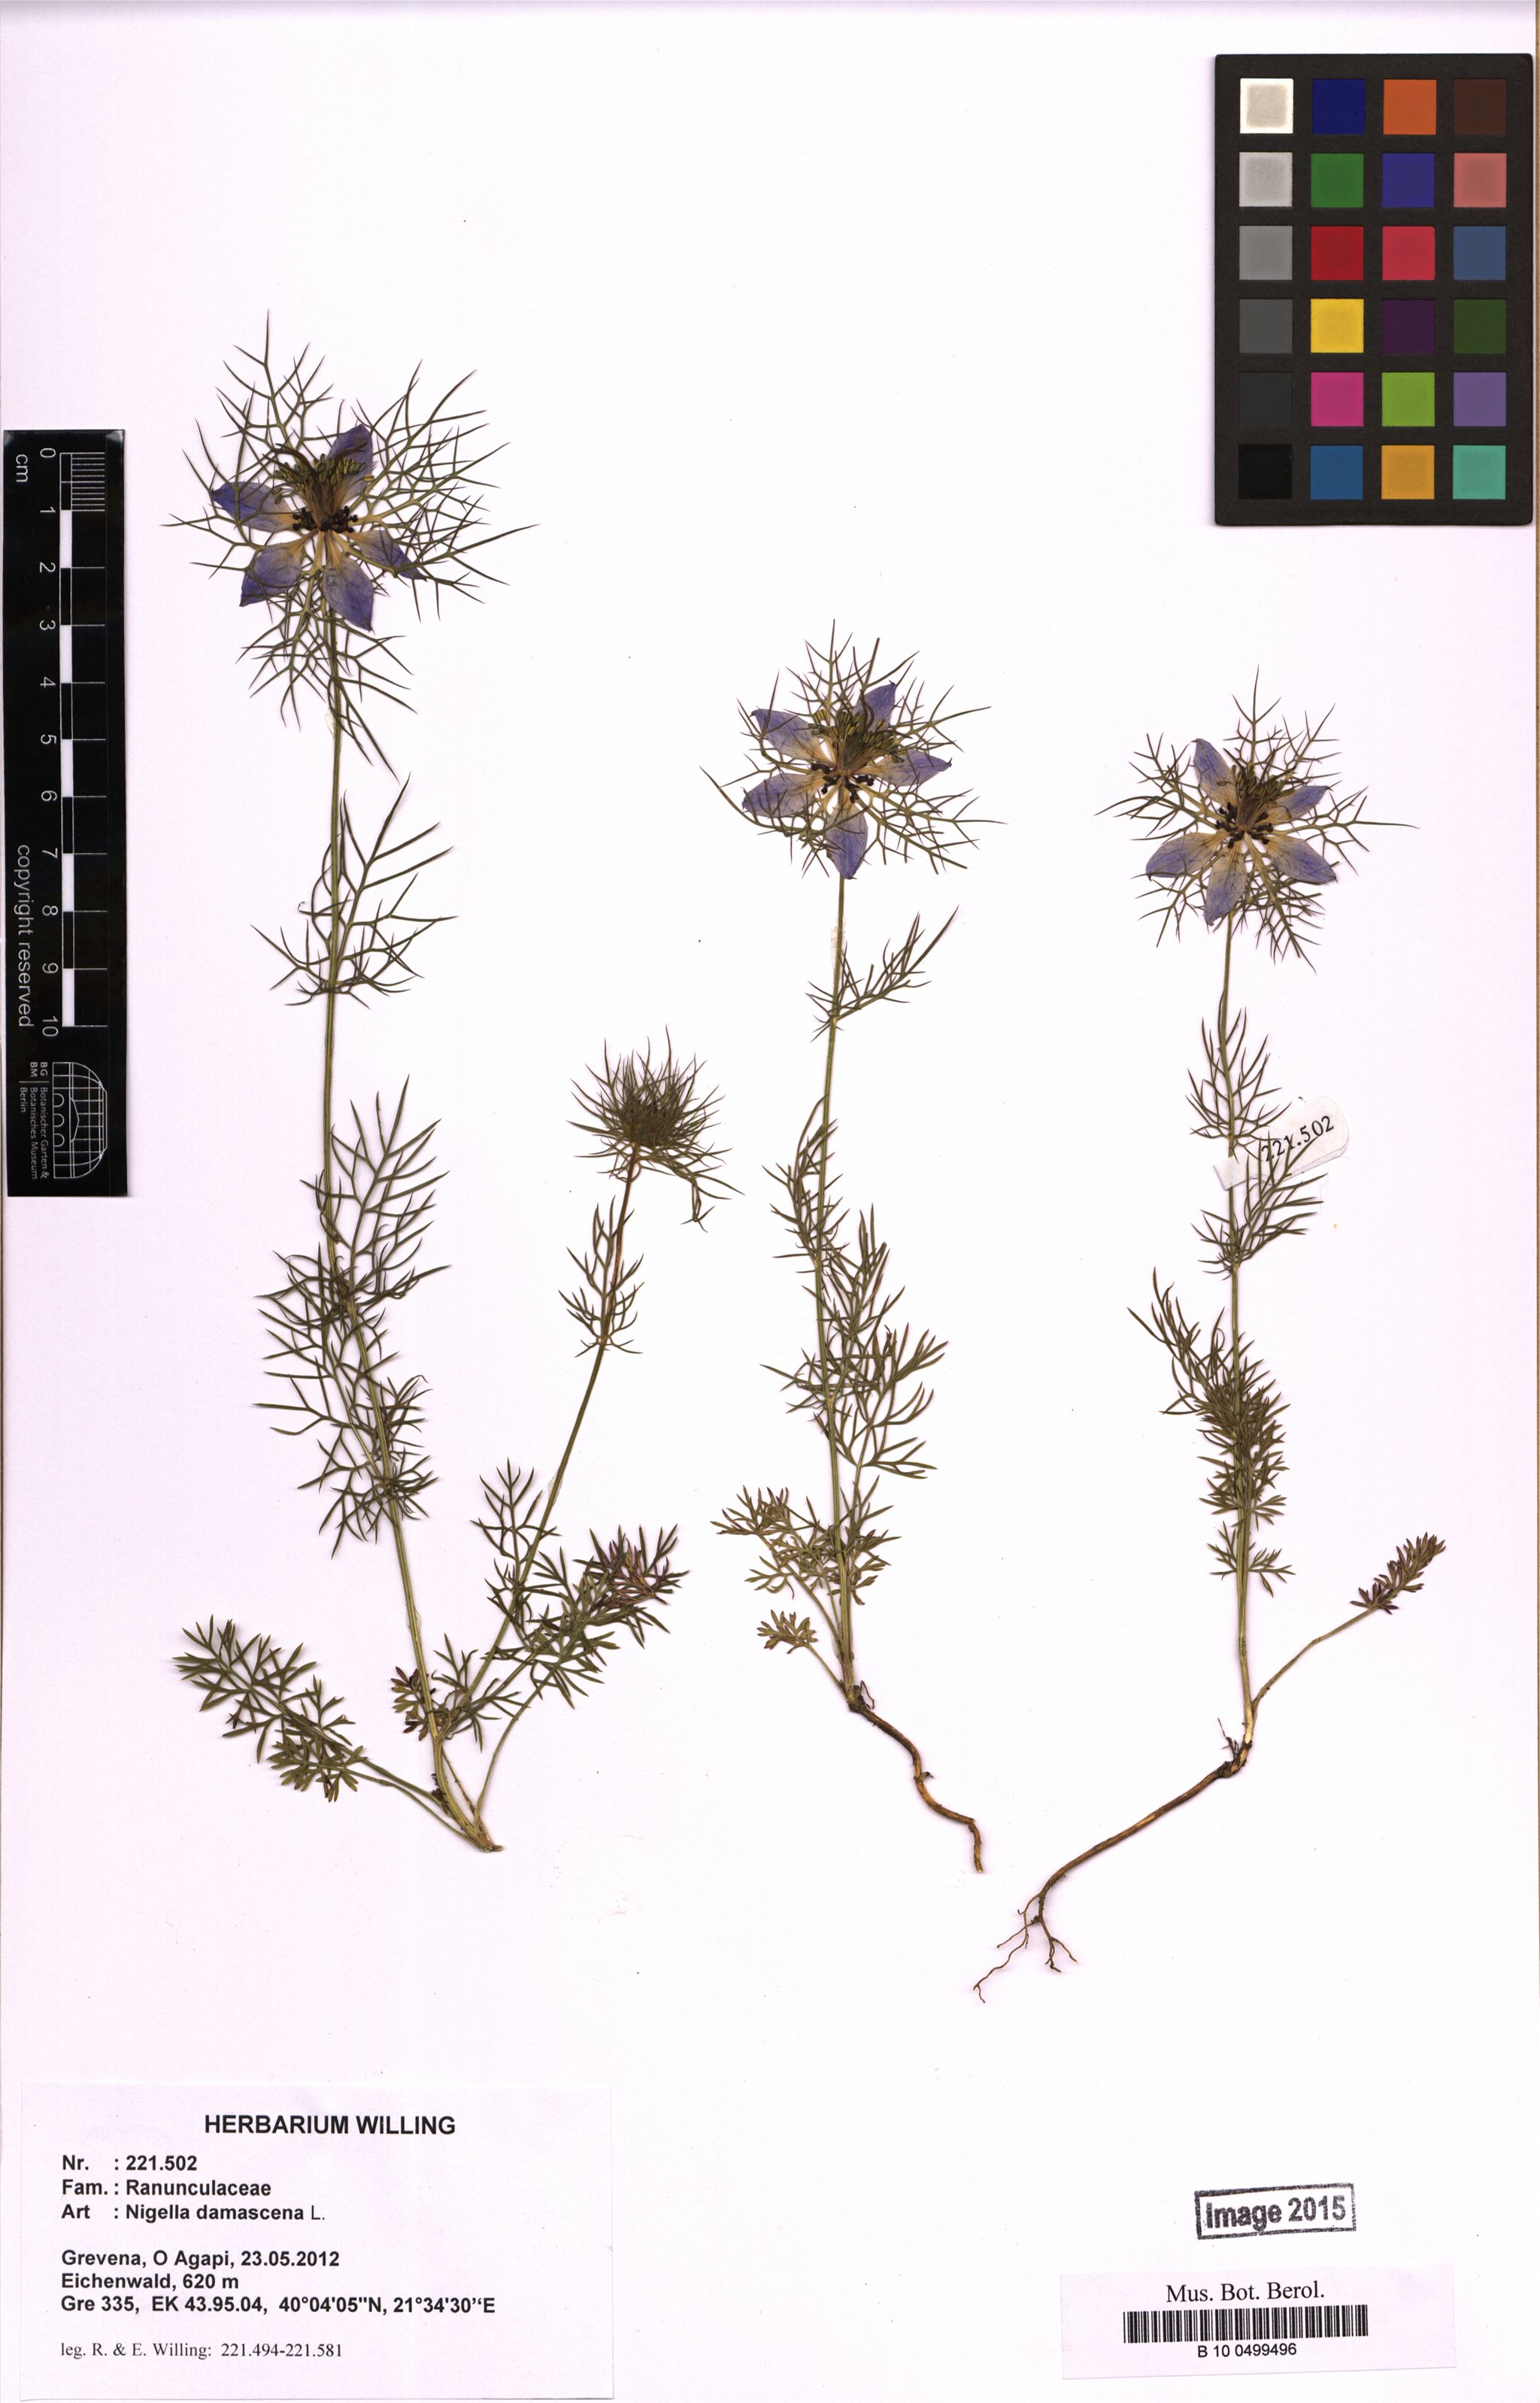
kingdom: Plantae
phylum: Tracheophyta
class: Magnoliopsida
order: Ranunculales
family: Ranunculaceae
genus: Nigella
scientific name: Nigella damascena
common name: Love-in-a-mist
